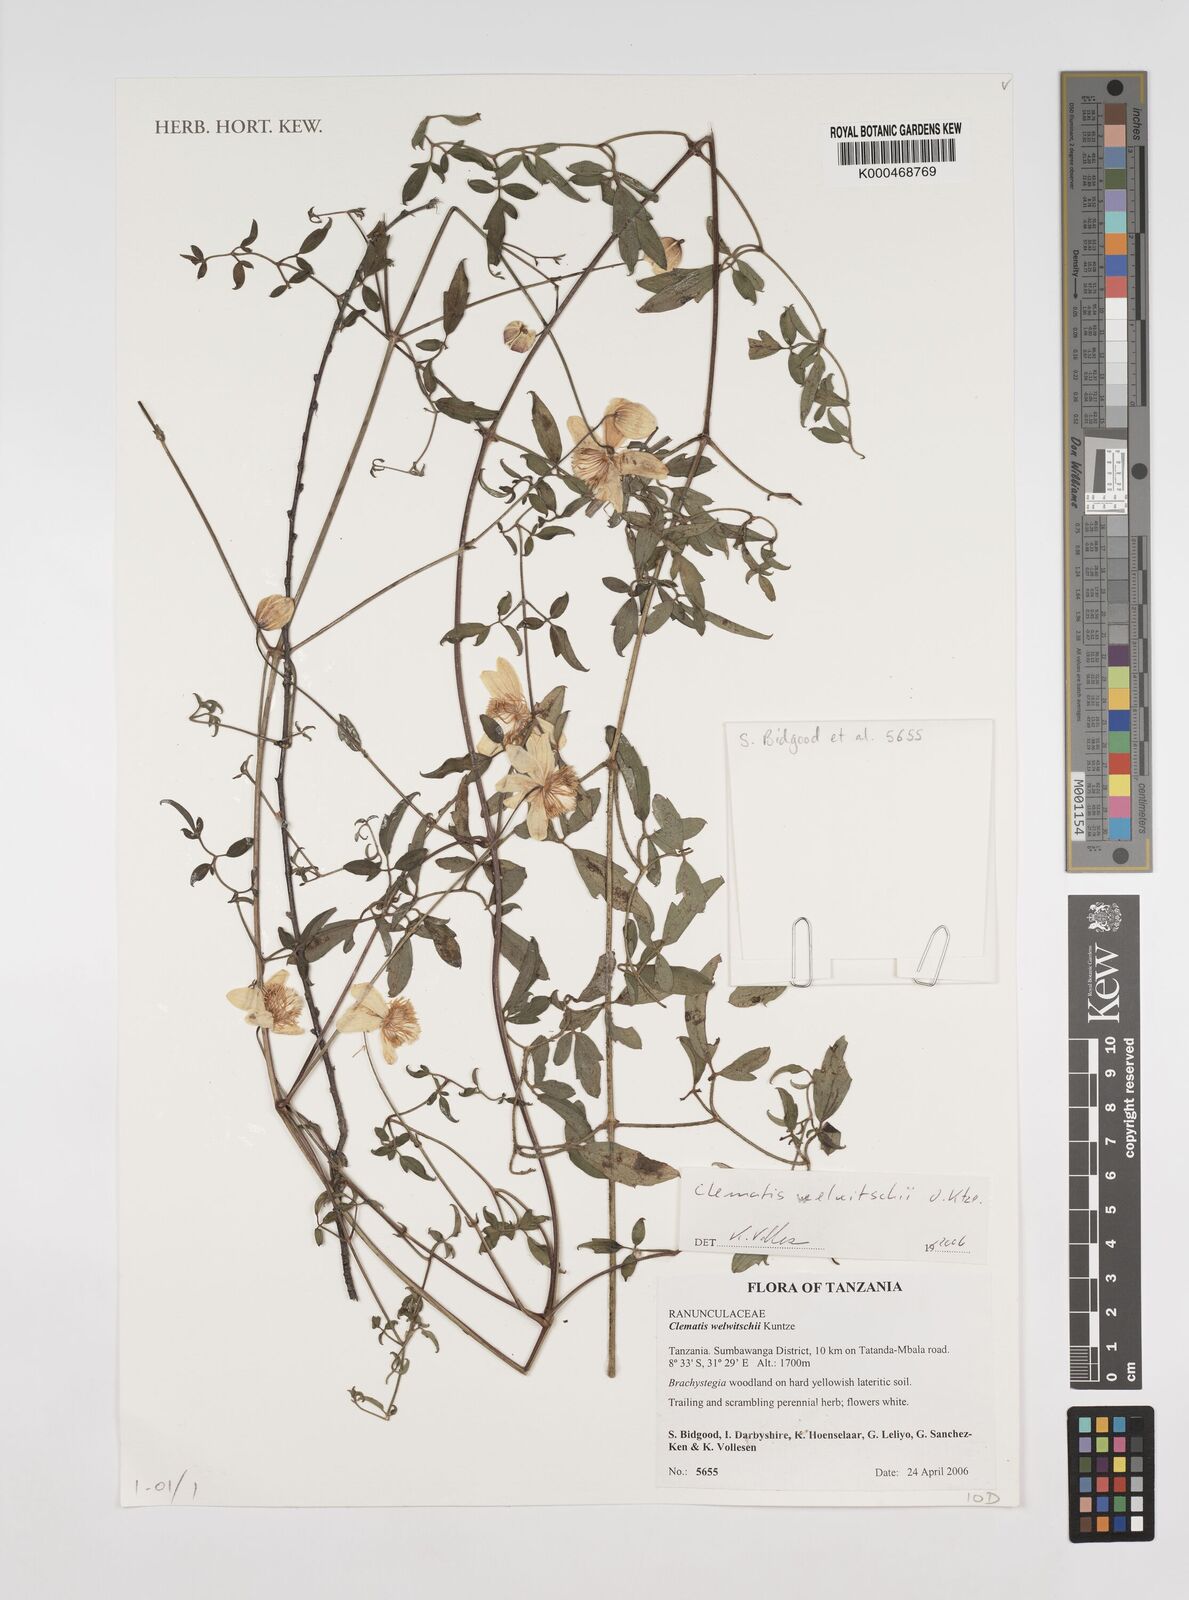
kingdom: Plantae
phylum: Tracheophyta
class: Magnoliopsida
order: Ranunculales
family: Ranunculaceae
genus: Clematis
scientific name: Clematis welwitschii
